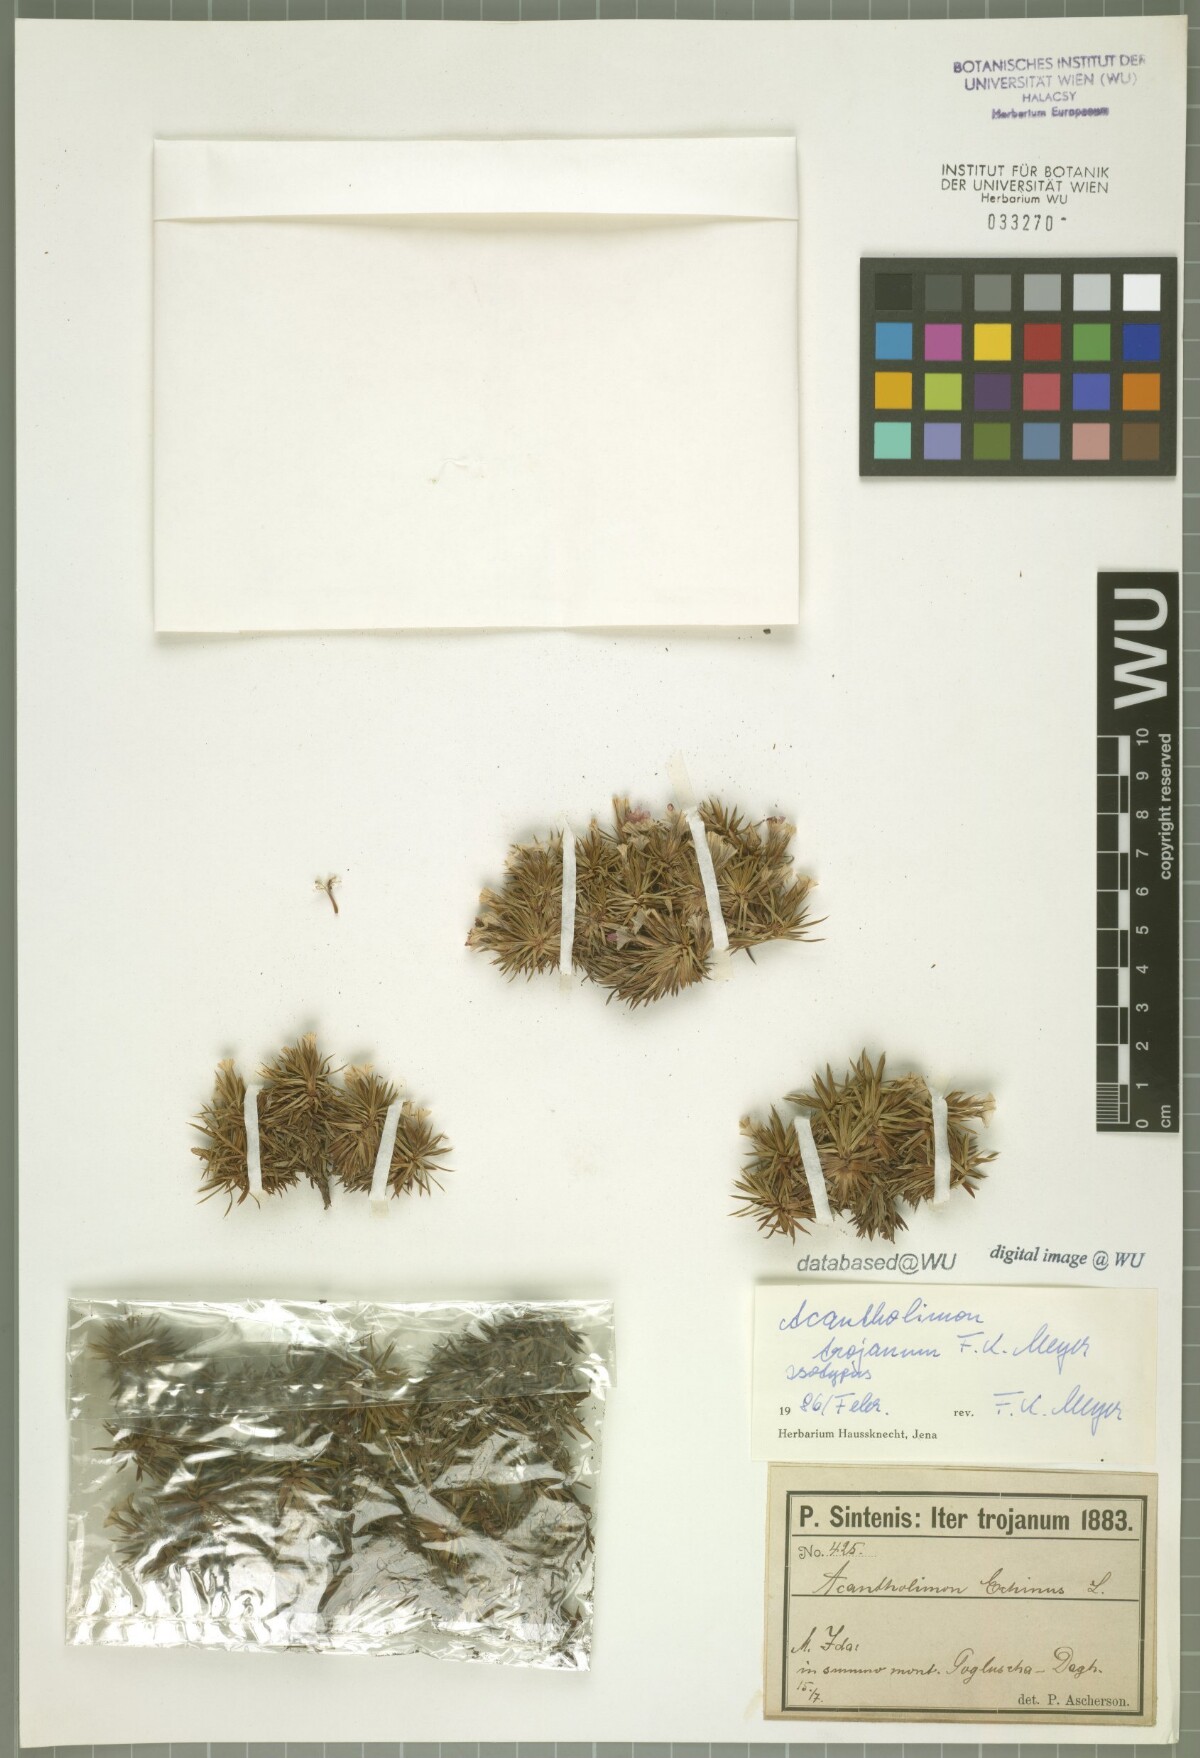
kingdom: Plantae
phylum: Tracheophyta
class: Magnoliopsida
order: Caryophyllales
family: Plumbaginaceae
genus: Acantholimon
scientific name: Acantholimon ulicinum
